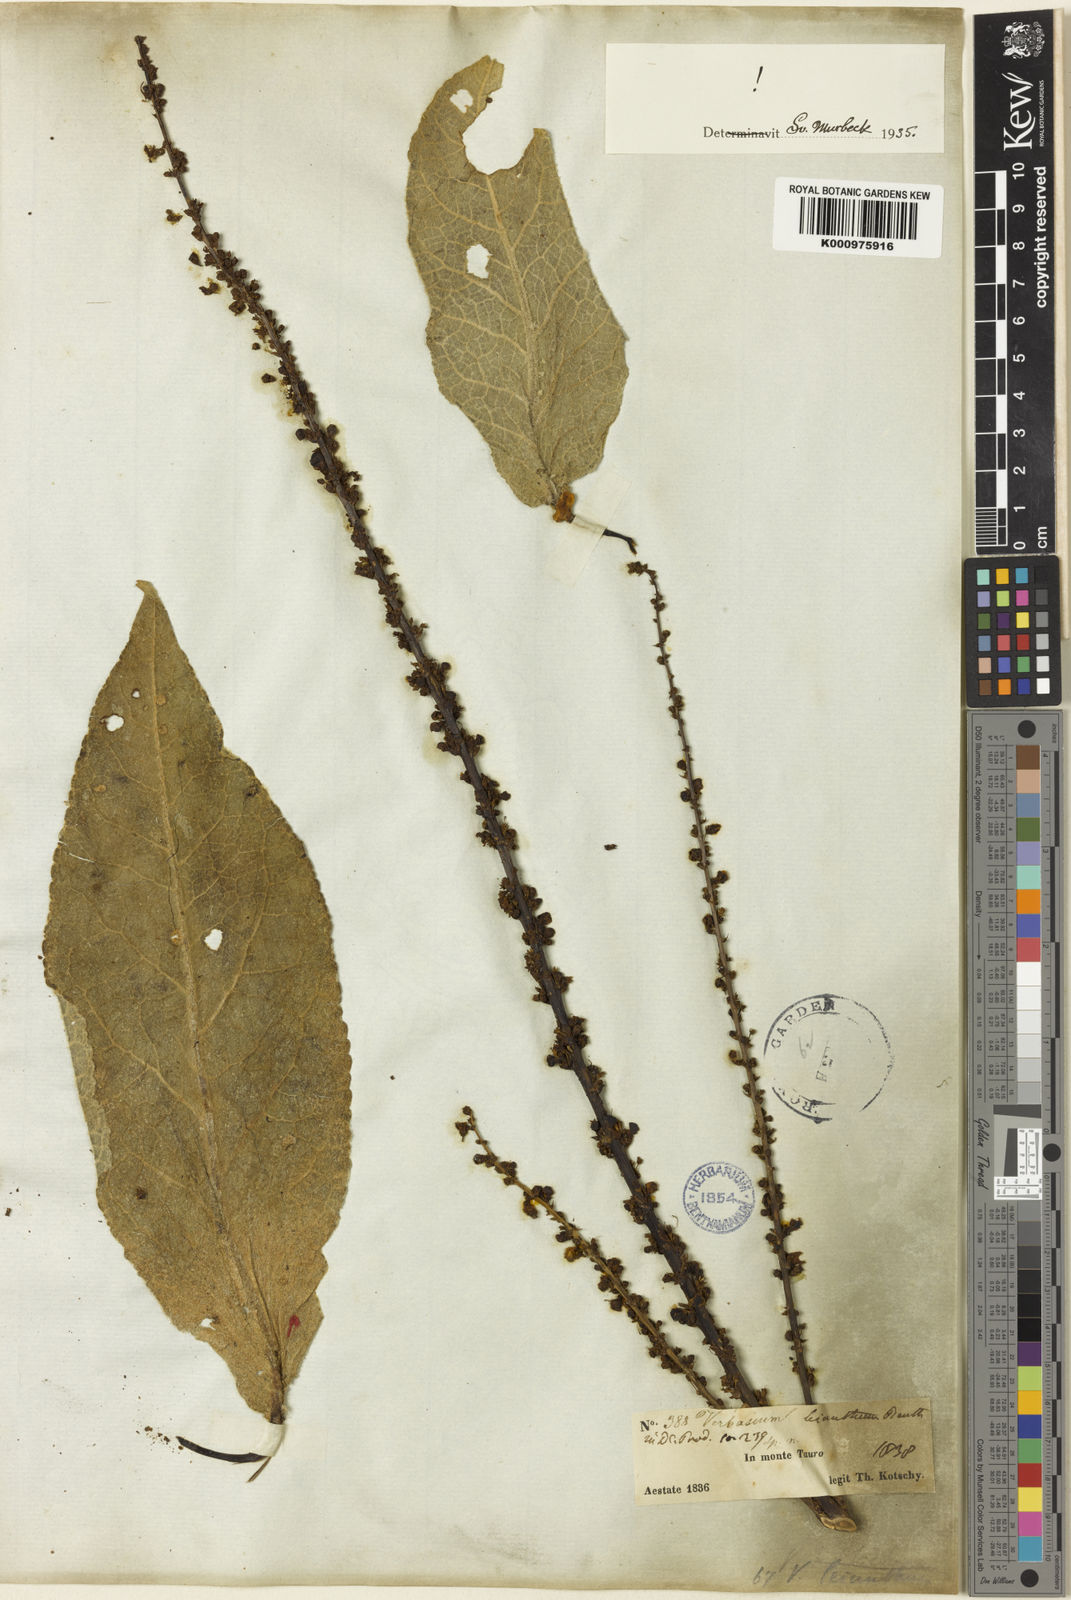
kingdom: Plantae
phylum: Tracheophyta
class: Magnoliopsida
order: Lamiales
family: Scrophulariaceae
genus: Verbascum
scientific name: Verbascum leianthum
